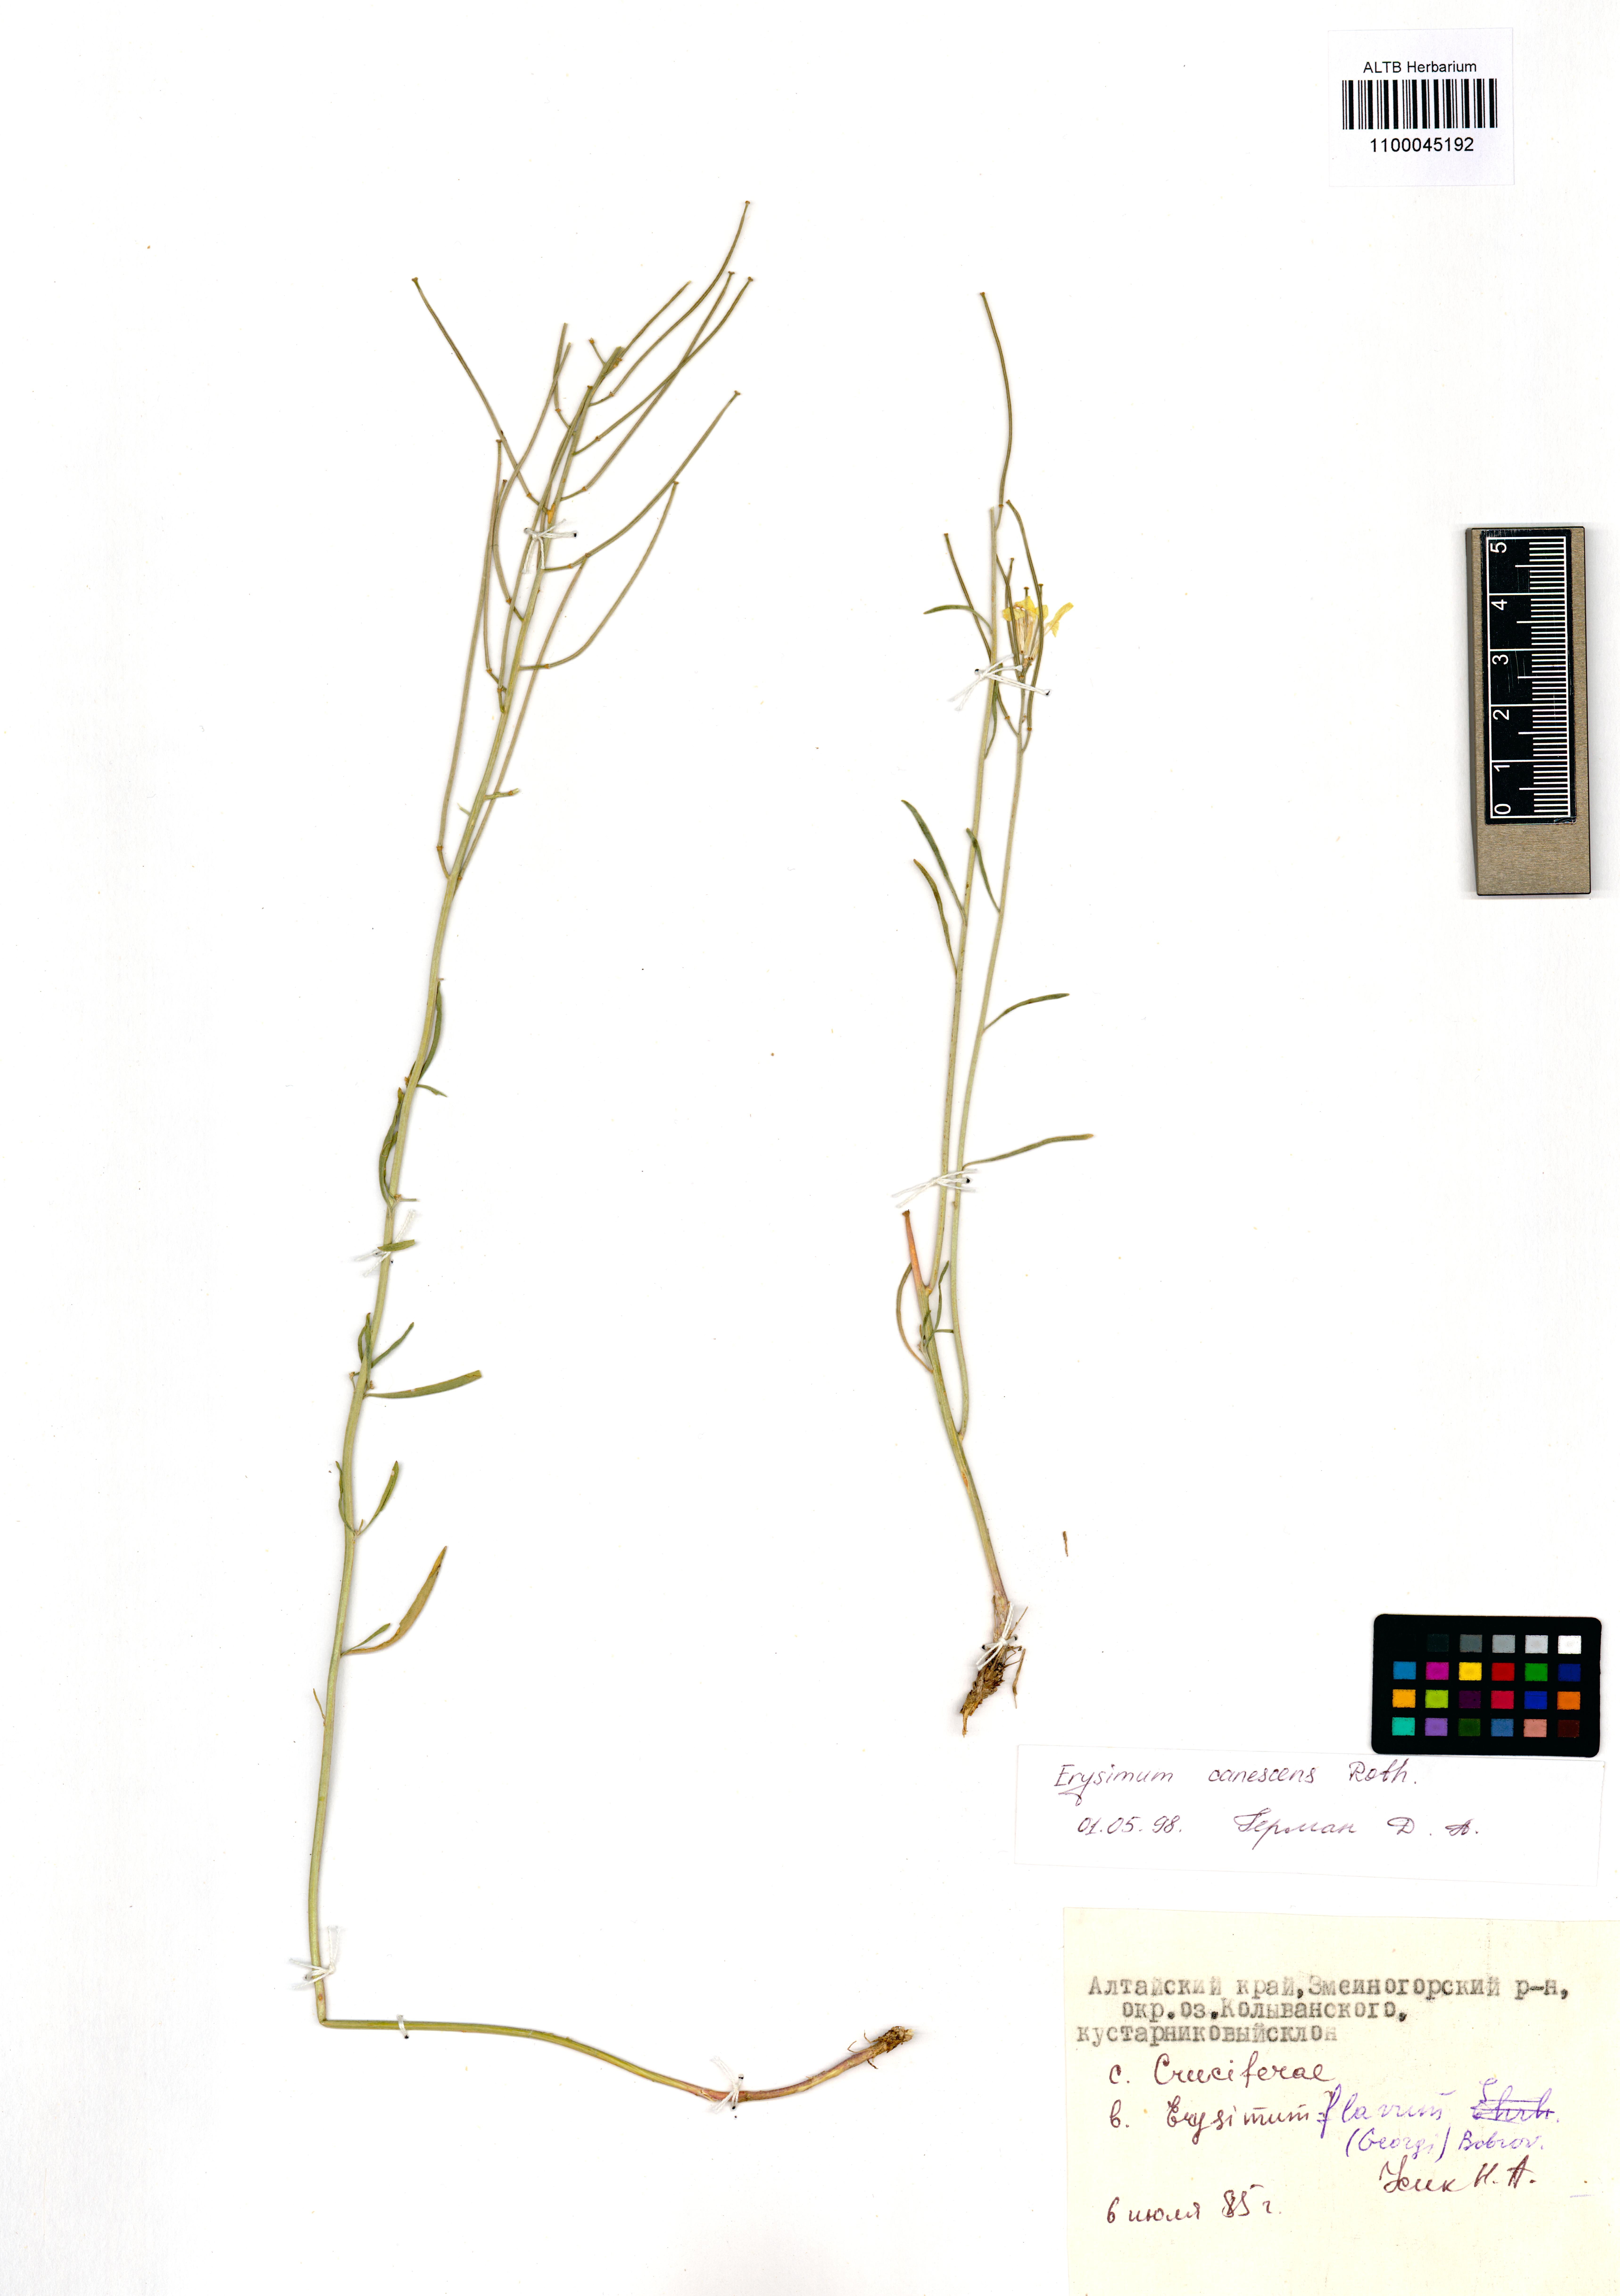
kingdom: Plantae
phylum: Tracheophyta
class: Magnoliopsida
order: Brassicales
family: Brassicaceae
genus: Erysimum
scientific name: Erysimum canescens
